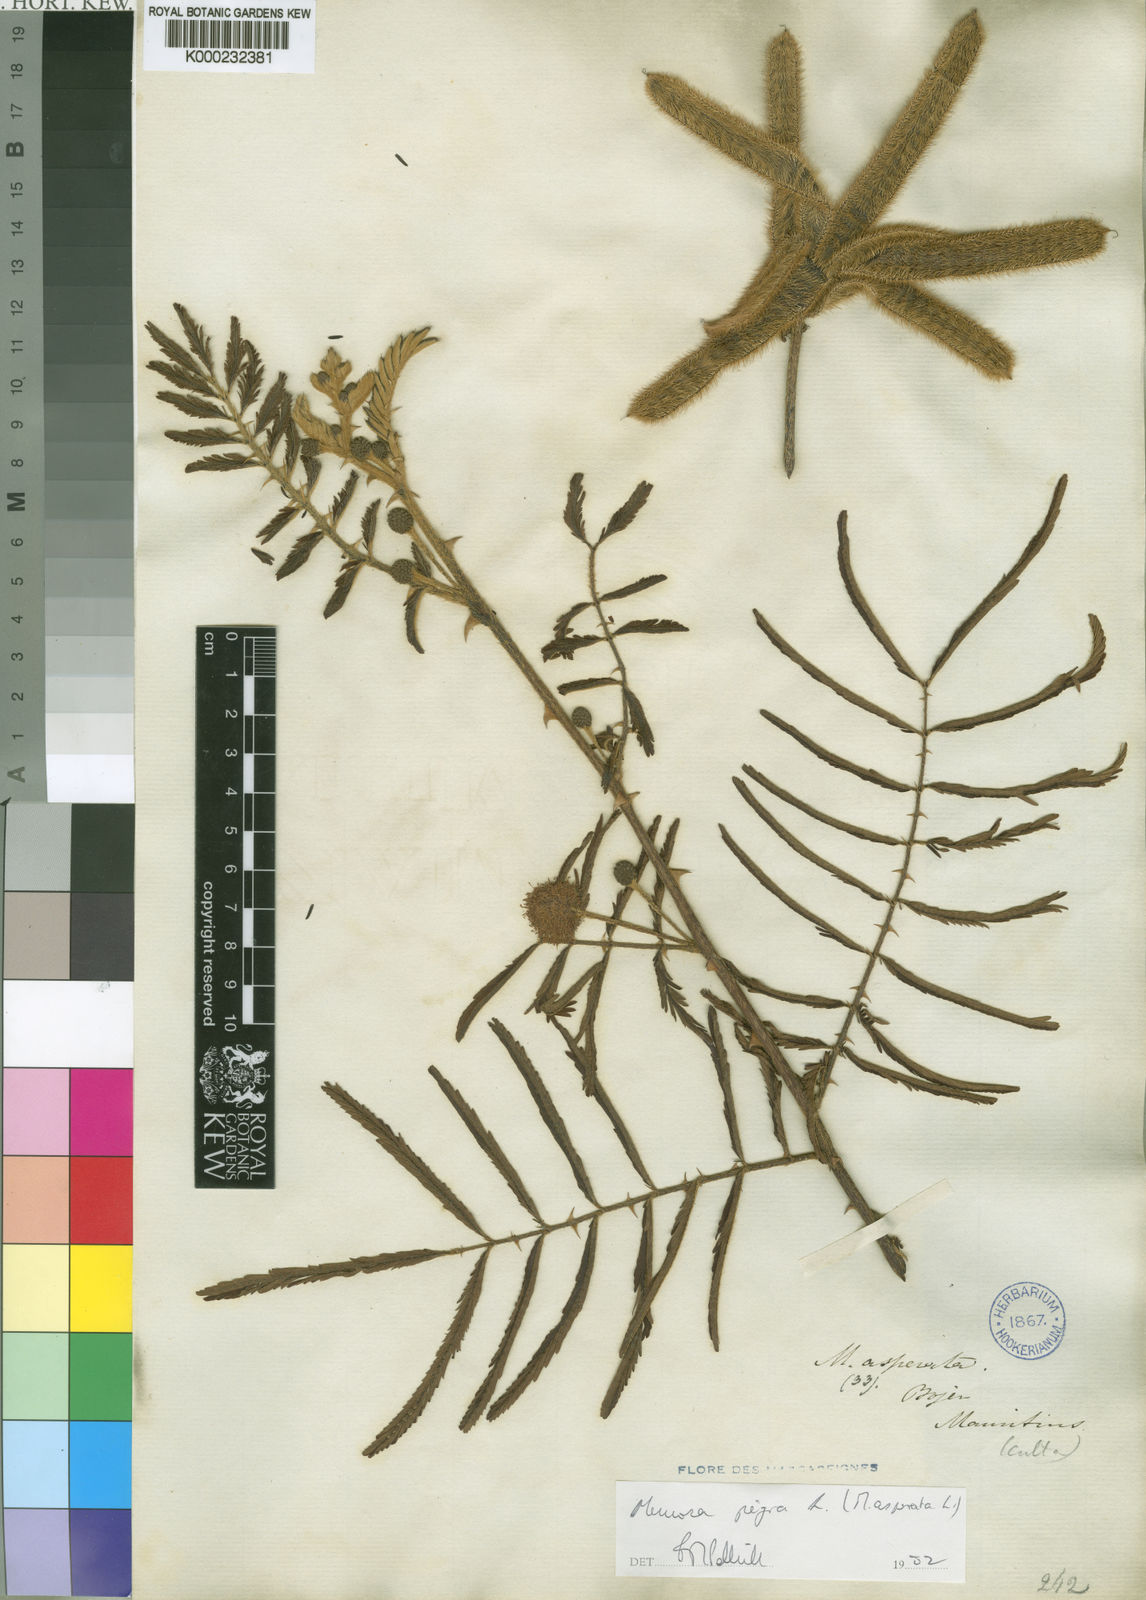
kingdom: Plantae
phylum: Tracheophyta
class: Magnoliopsida
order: Fabales
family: Fabaceae
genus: Mimosa
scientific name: Mimosa pigra
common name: Black mimosa
